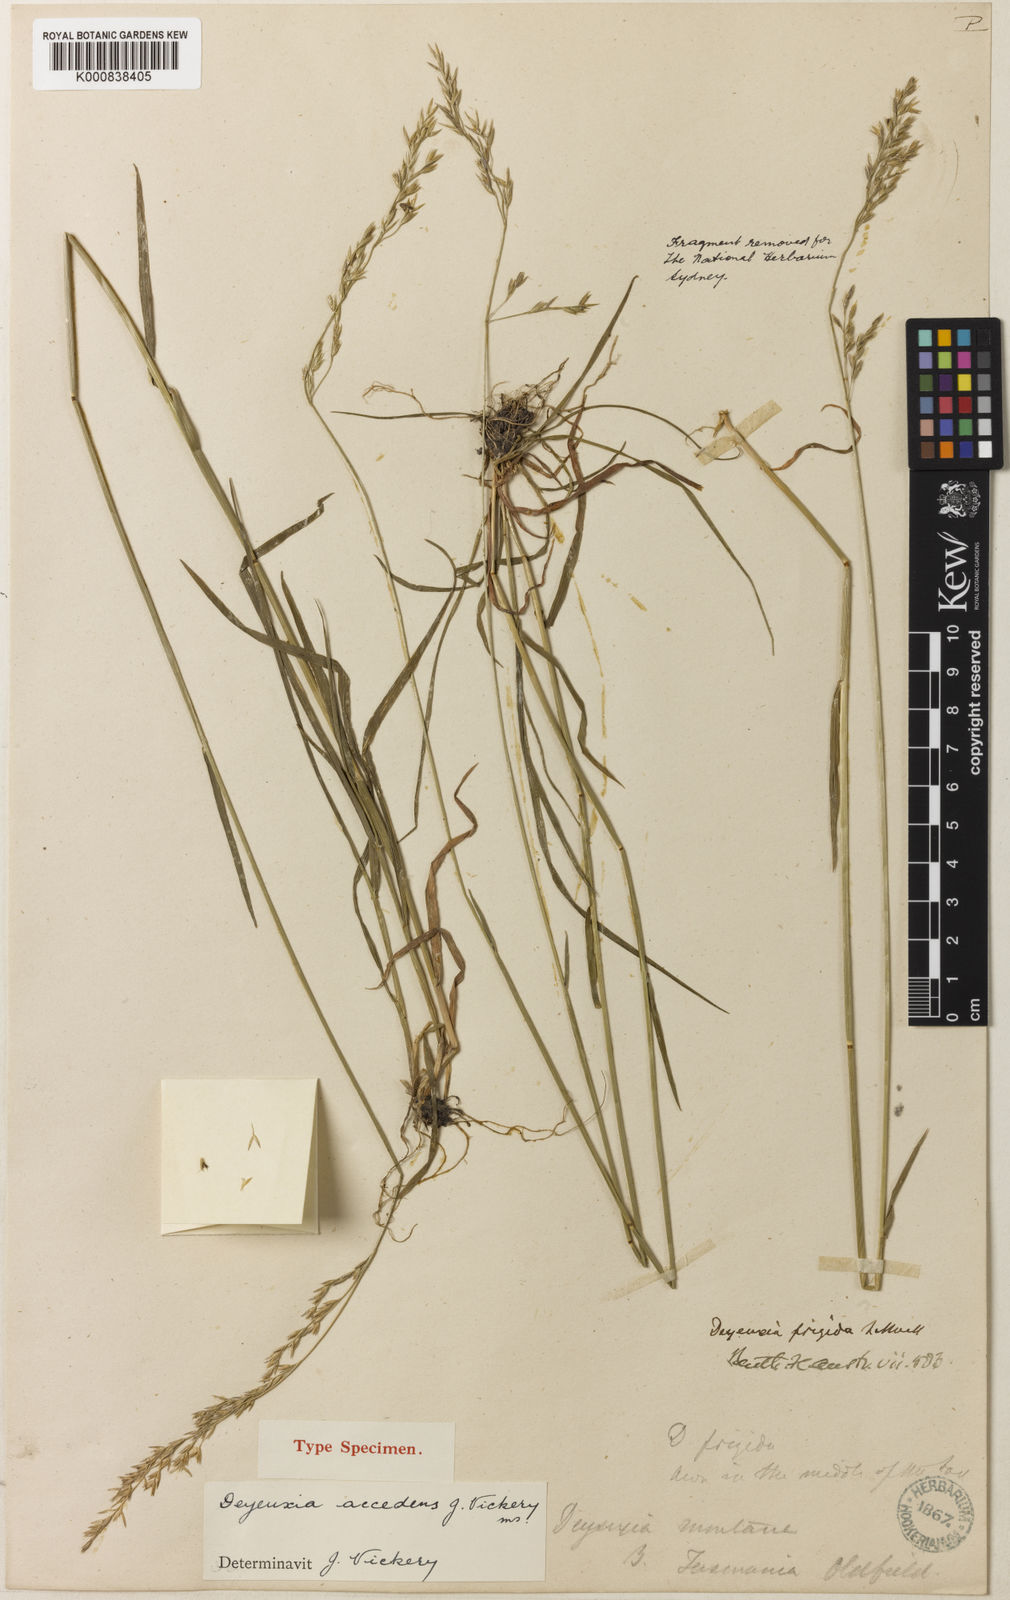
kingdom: Plantae
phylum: Tracheophyta
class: Liliopsida
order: Poales
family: Poaceae
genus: Calamagrostis
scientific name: Calamagrostis frigida
